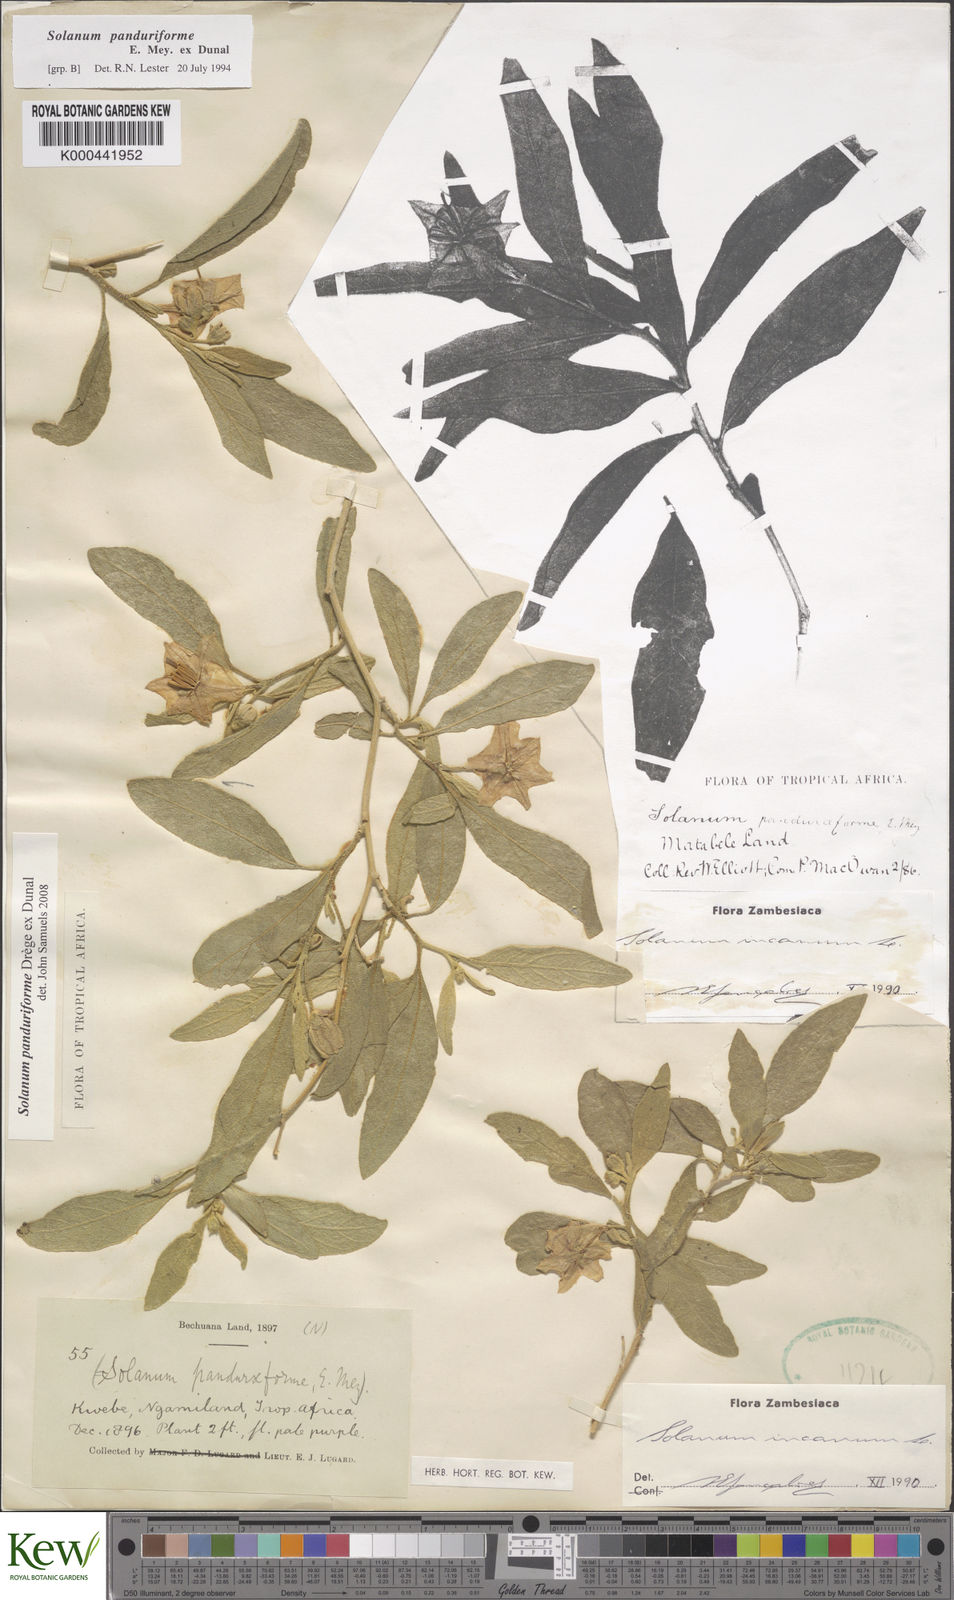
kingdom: Plantae
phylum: Tracheophyta
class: Magnoliopsida
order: Solanales
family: Solanaceae
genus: Solanum
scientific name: Solanum campylacanthum
